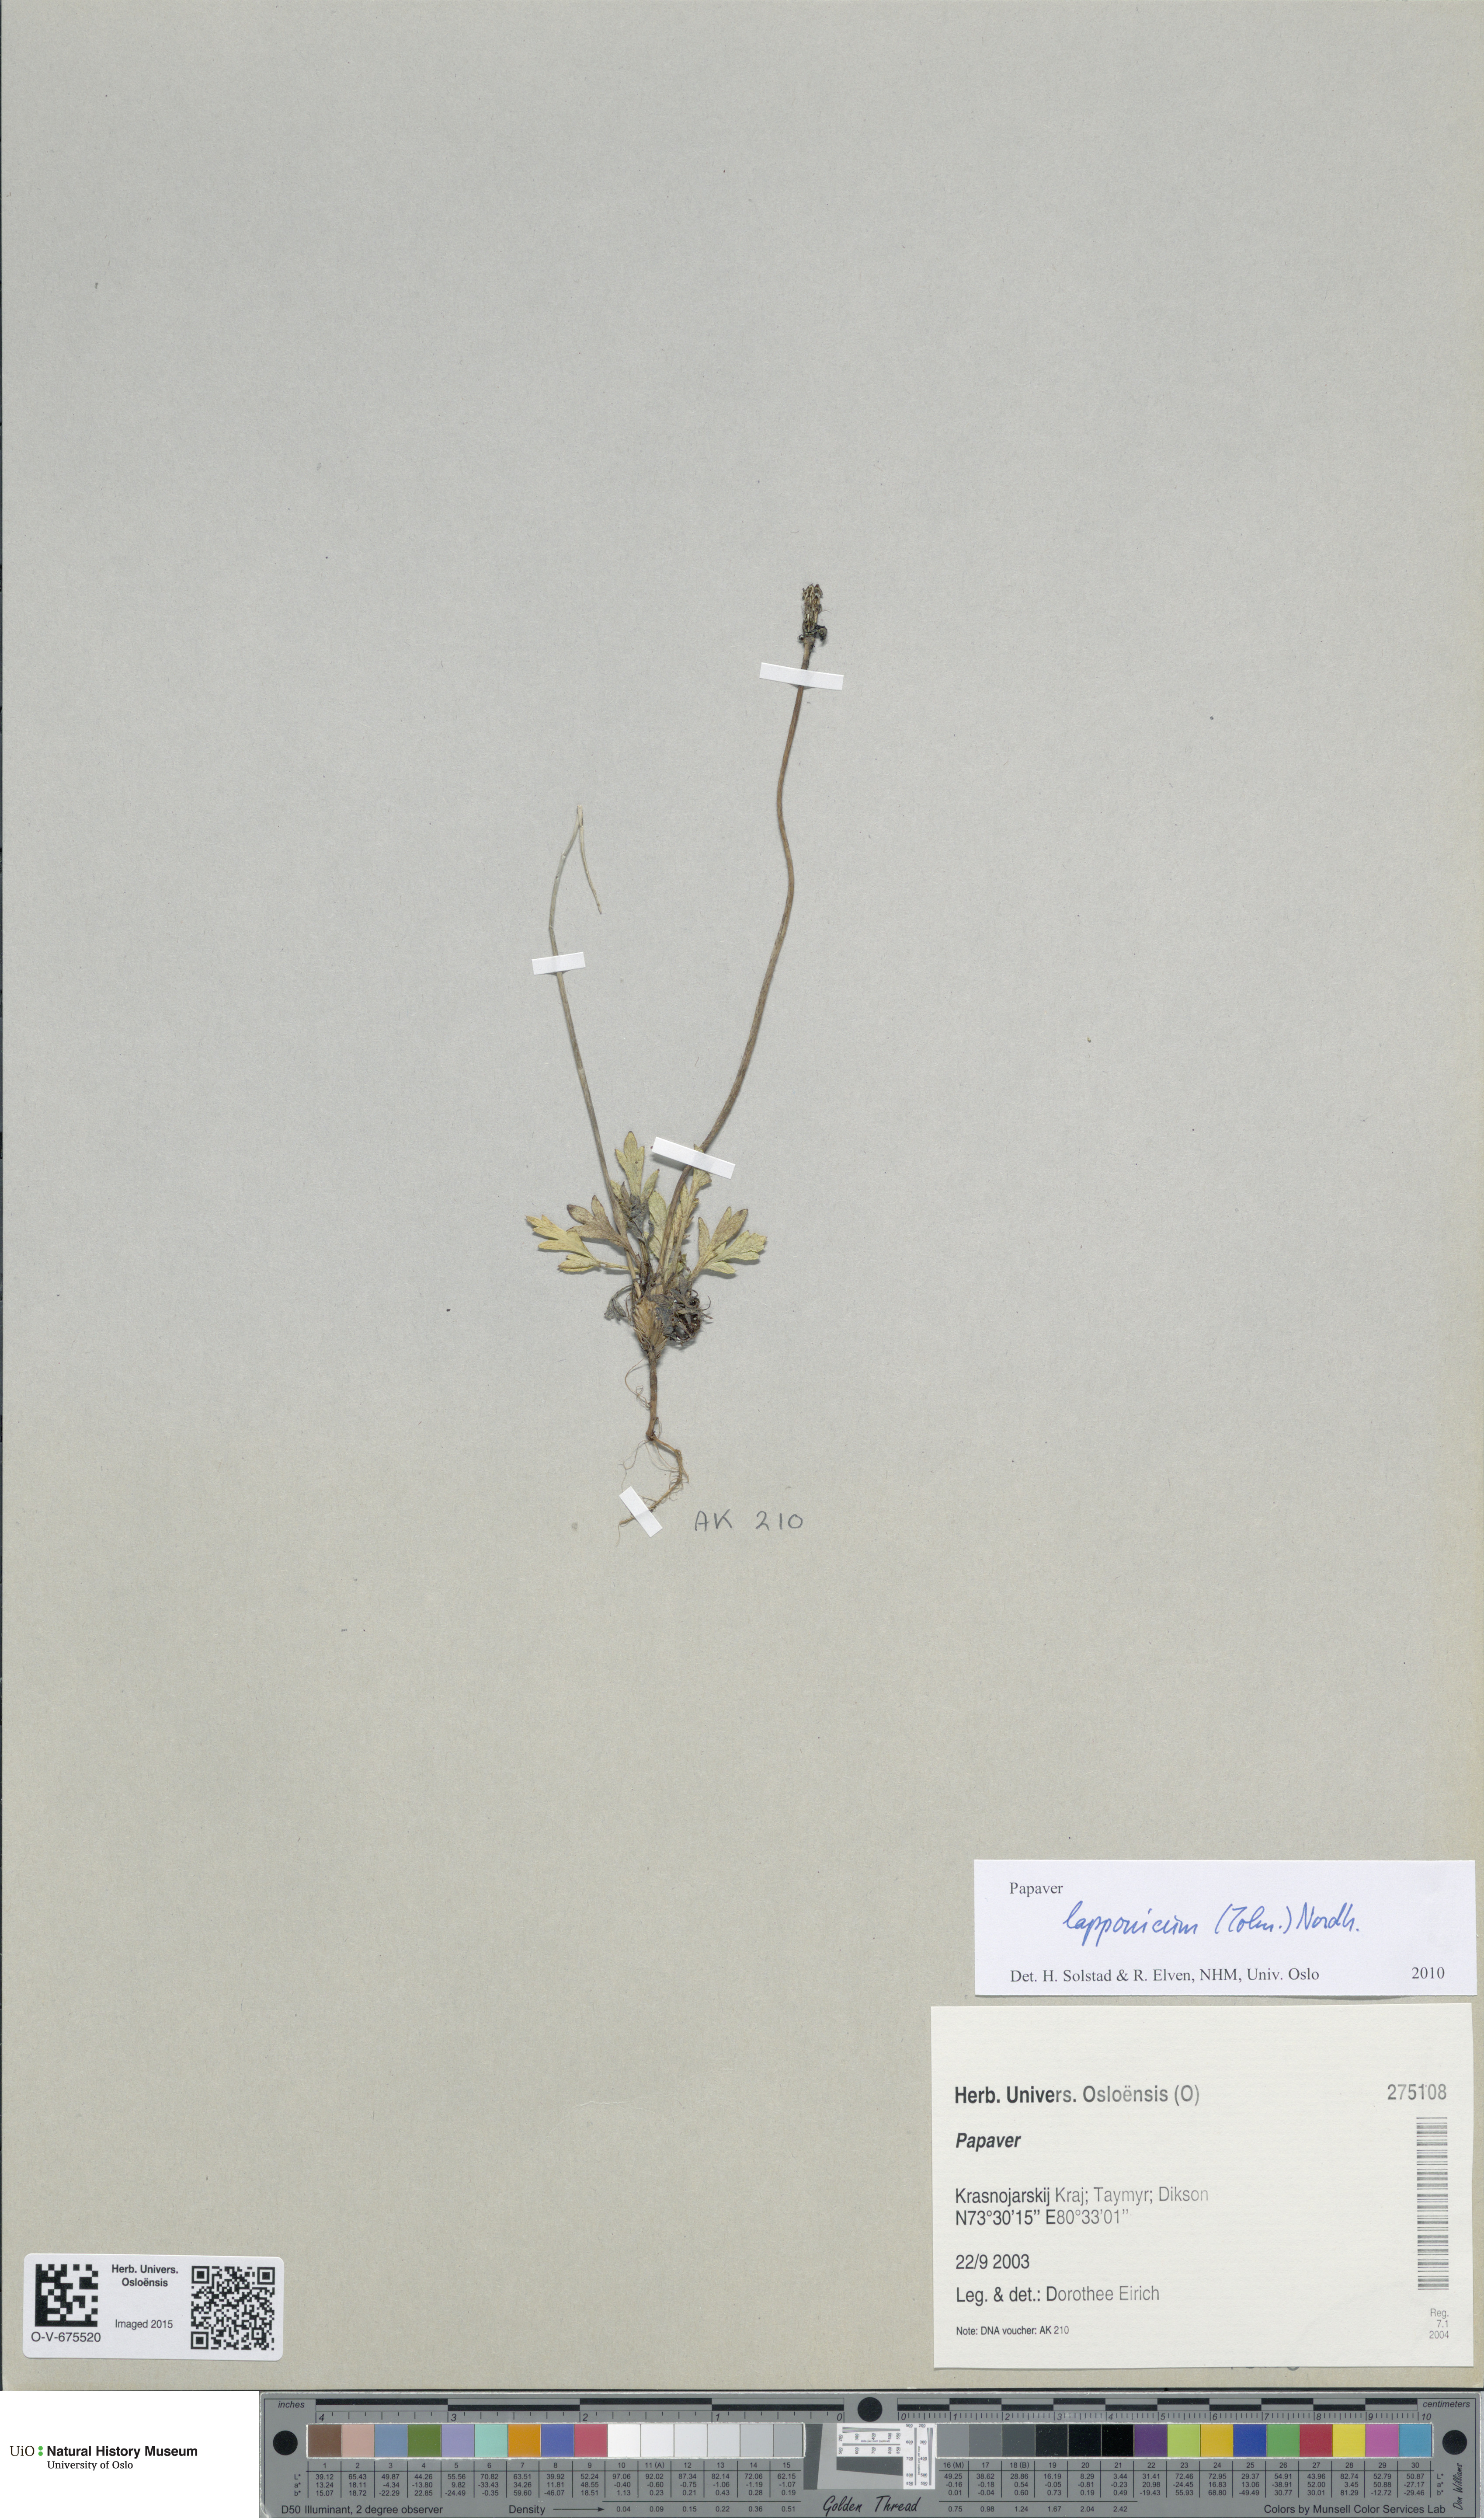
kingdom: Plantae
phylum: Tracheophyta
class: Magnoliopsida
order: Ranunculales
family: Papaveraceae
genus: Papaver
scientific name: Papaver lapponicum
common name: Lapland poppy
